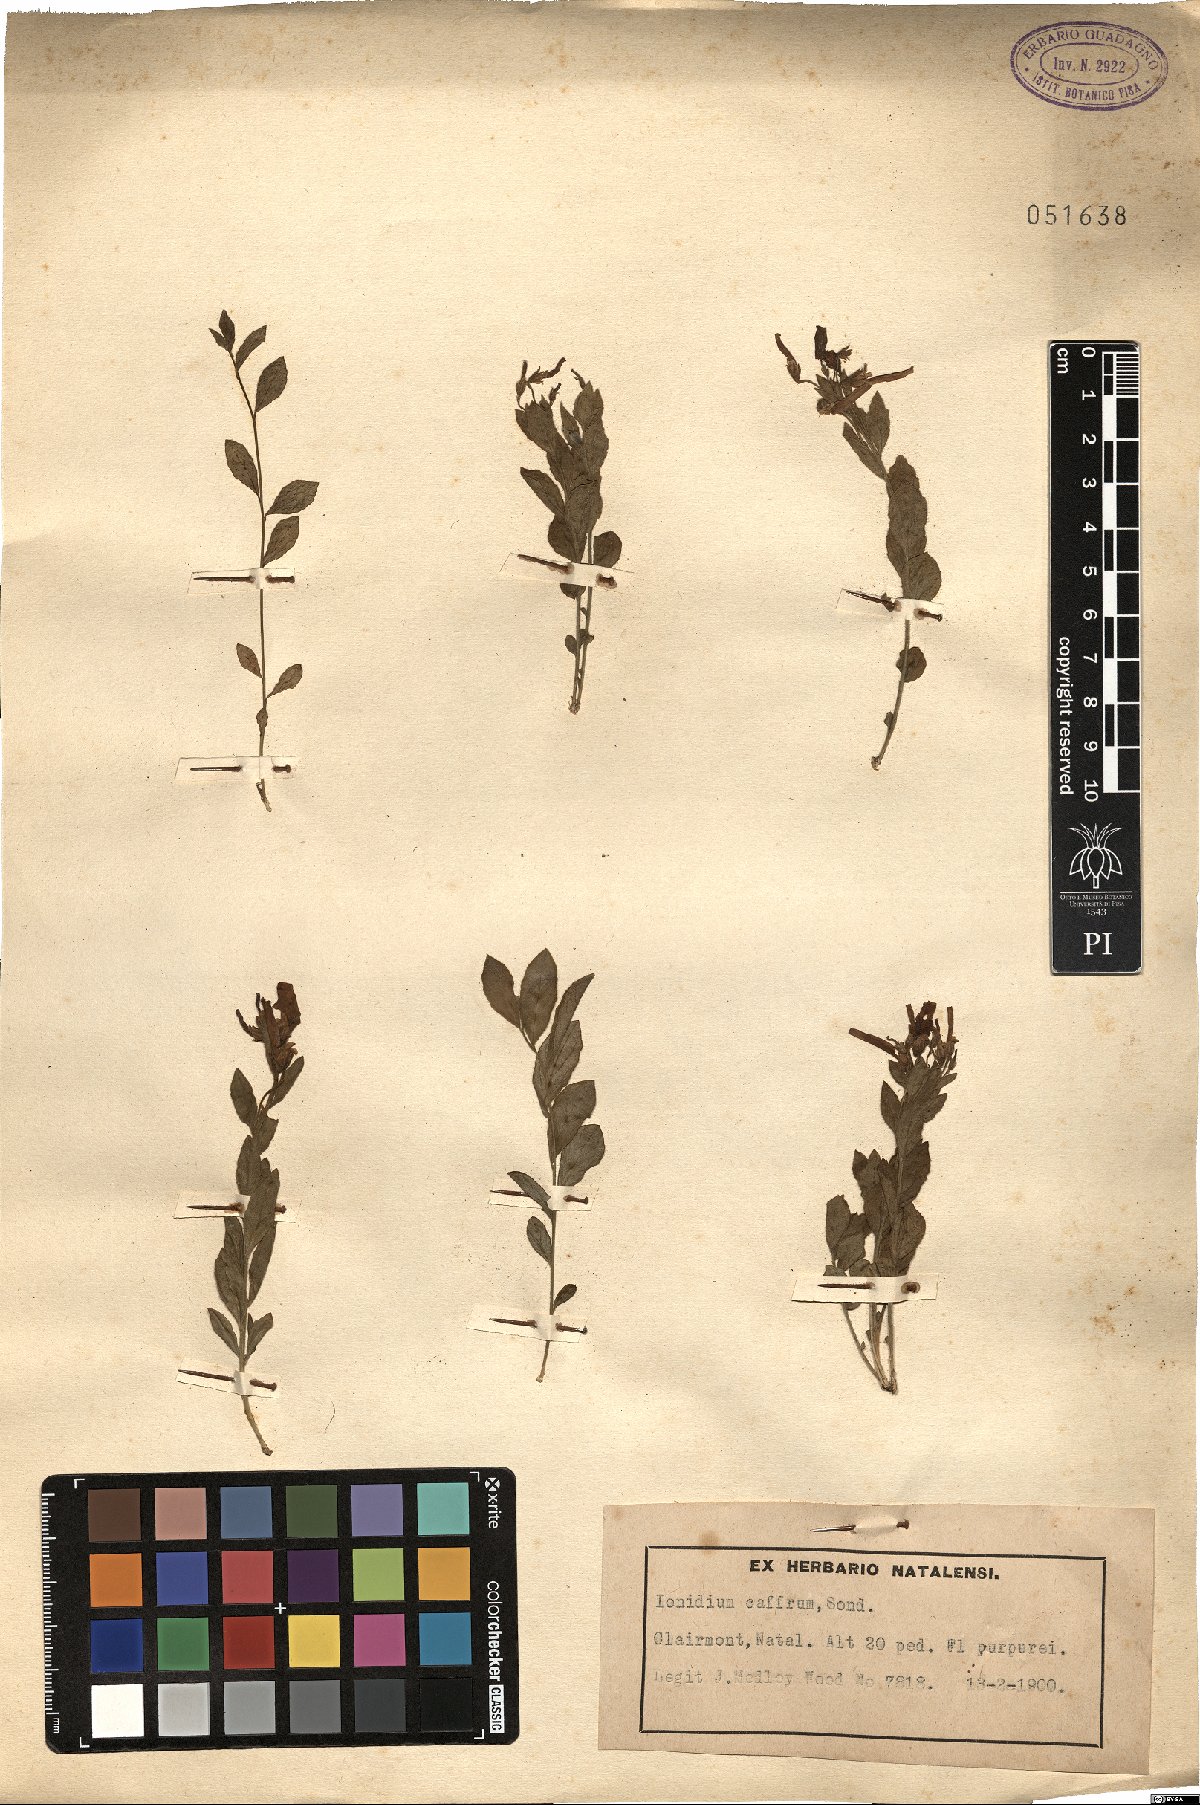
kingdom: Plantae
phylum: Tracheophyta
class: Magnoliopsida
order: Malpighiales
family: Violaceae
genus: Pigea
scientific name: Pigea caffra
